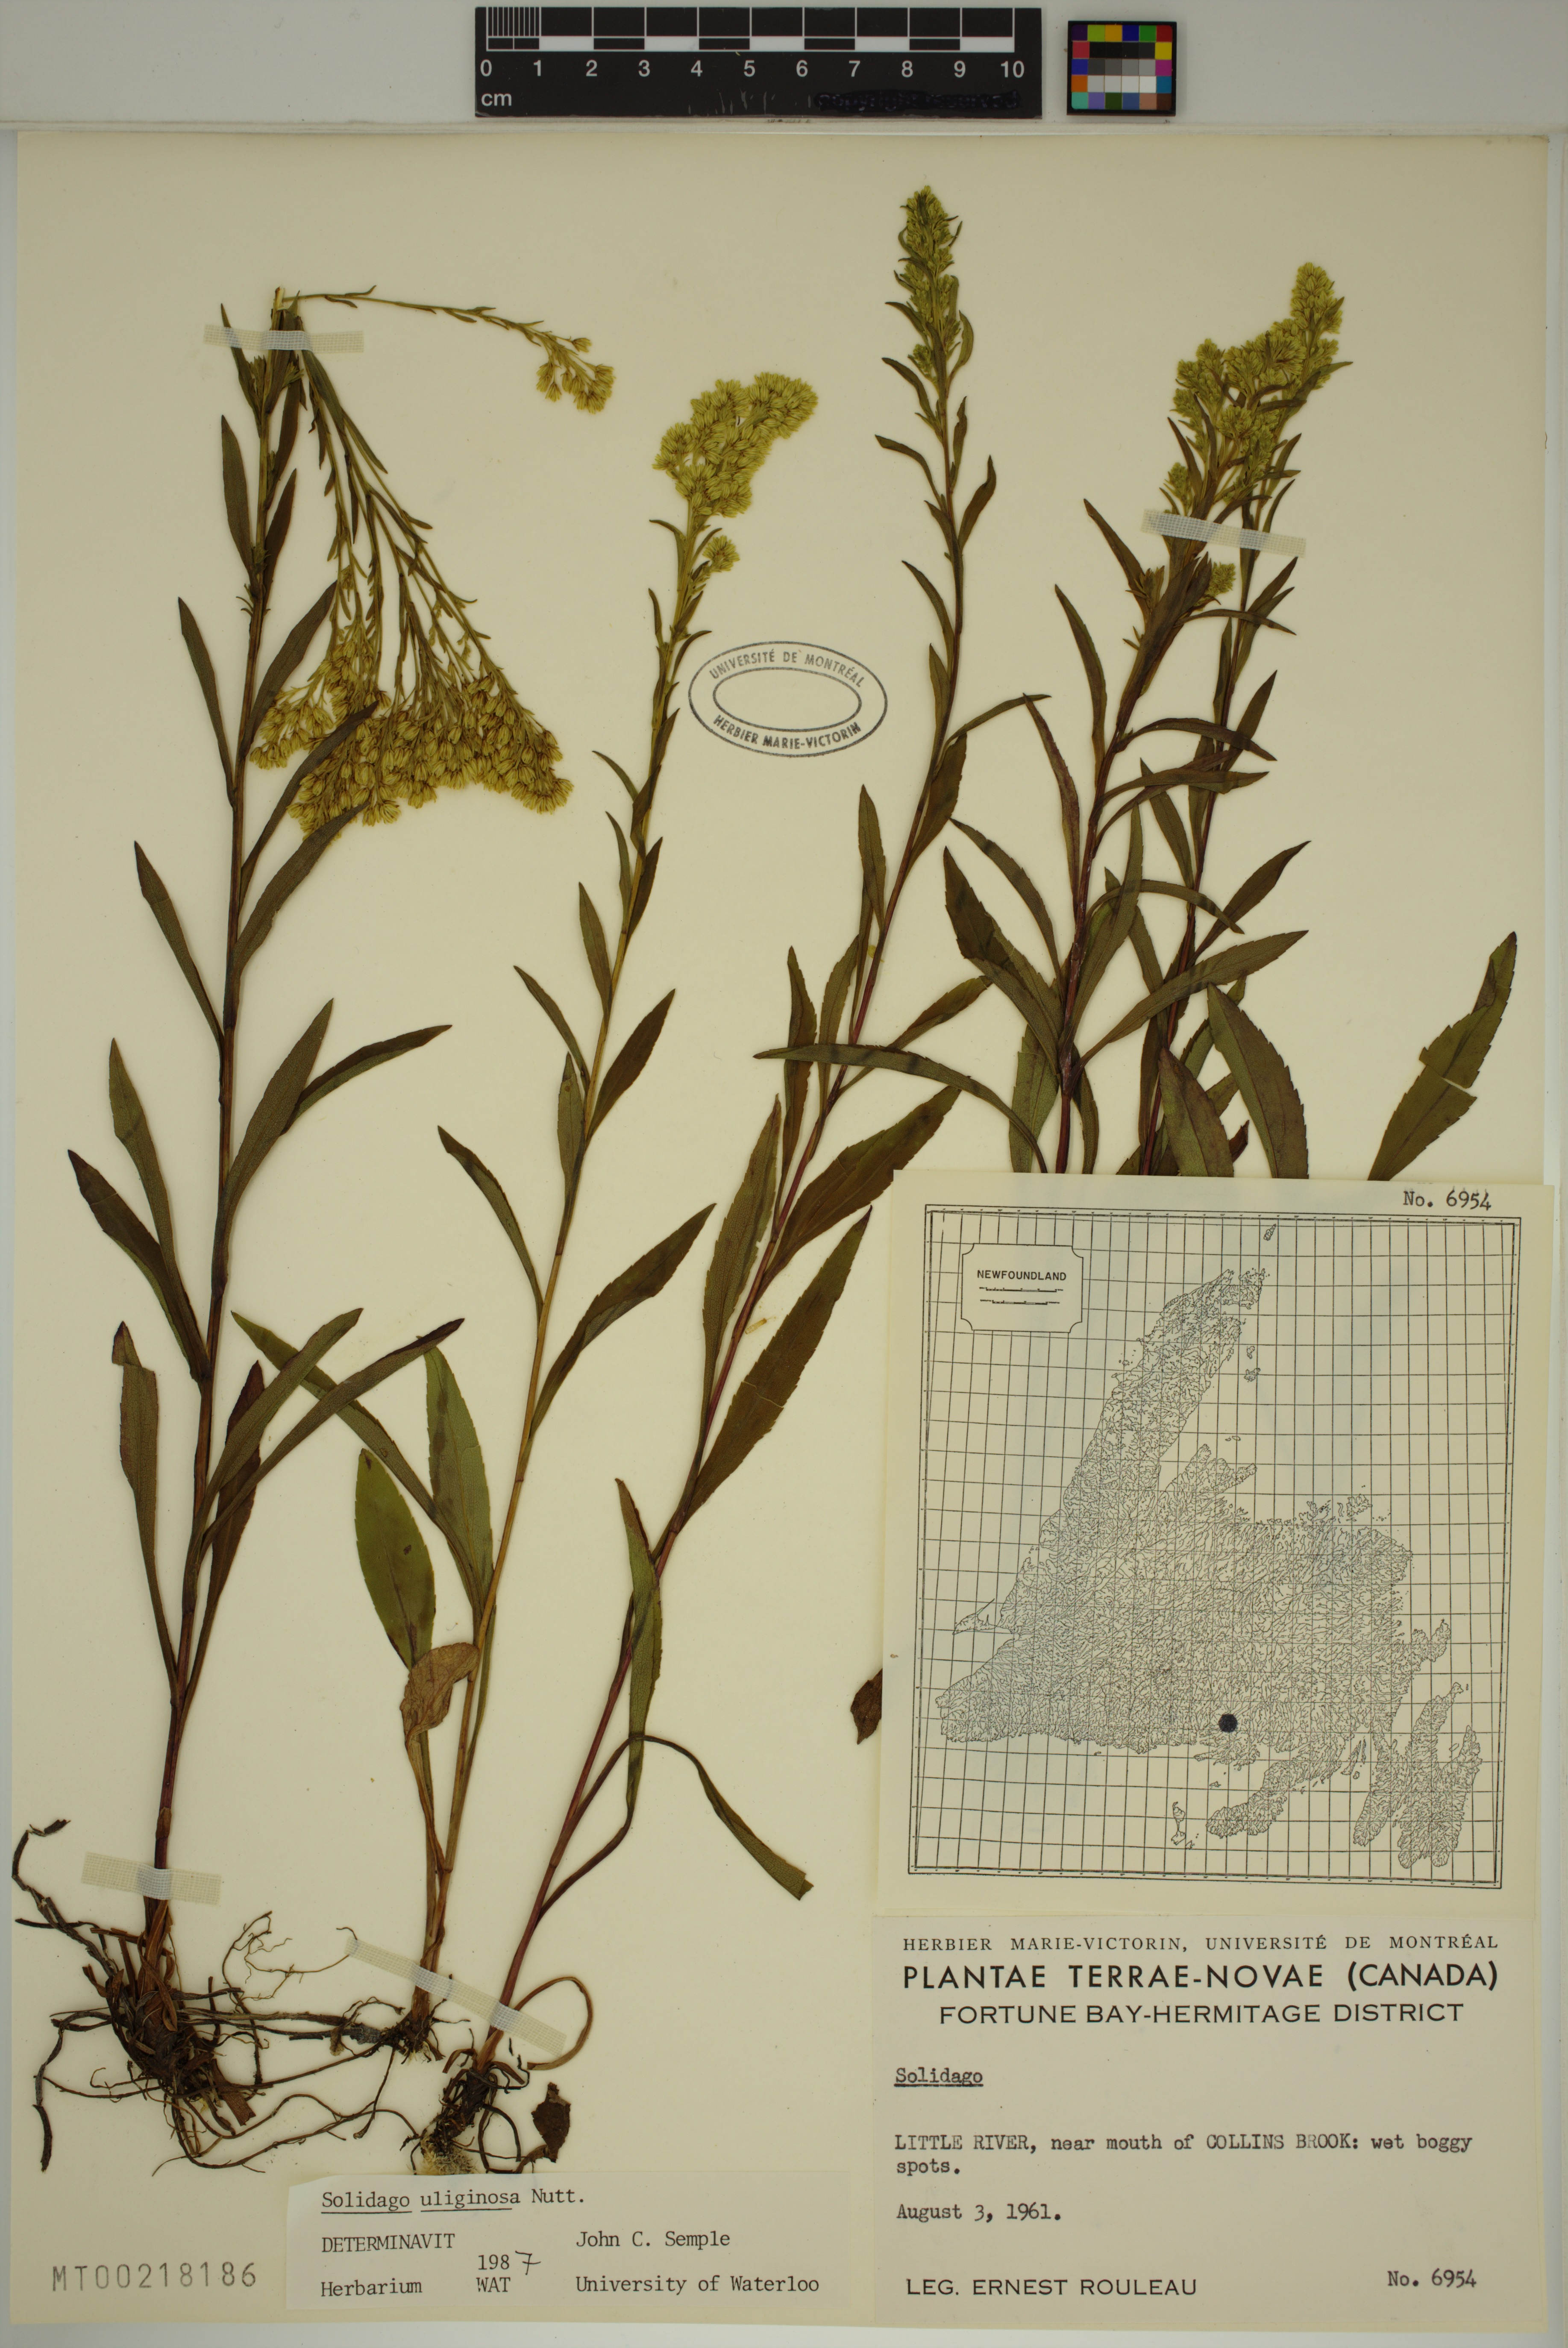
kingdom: Plantae
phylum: Tracheophyta
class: Magnoliopsida
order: Asterales
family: Asteraceae
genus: Solidago
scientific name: Solidago uliginosa
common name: Bog goldenrod
